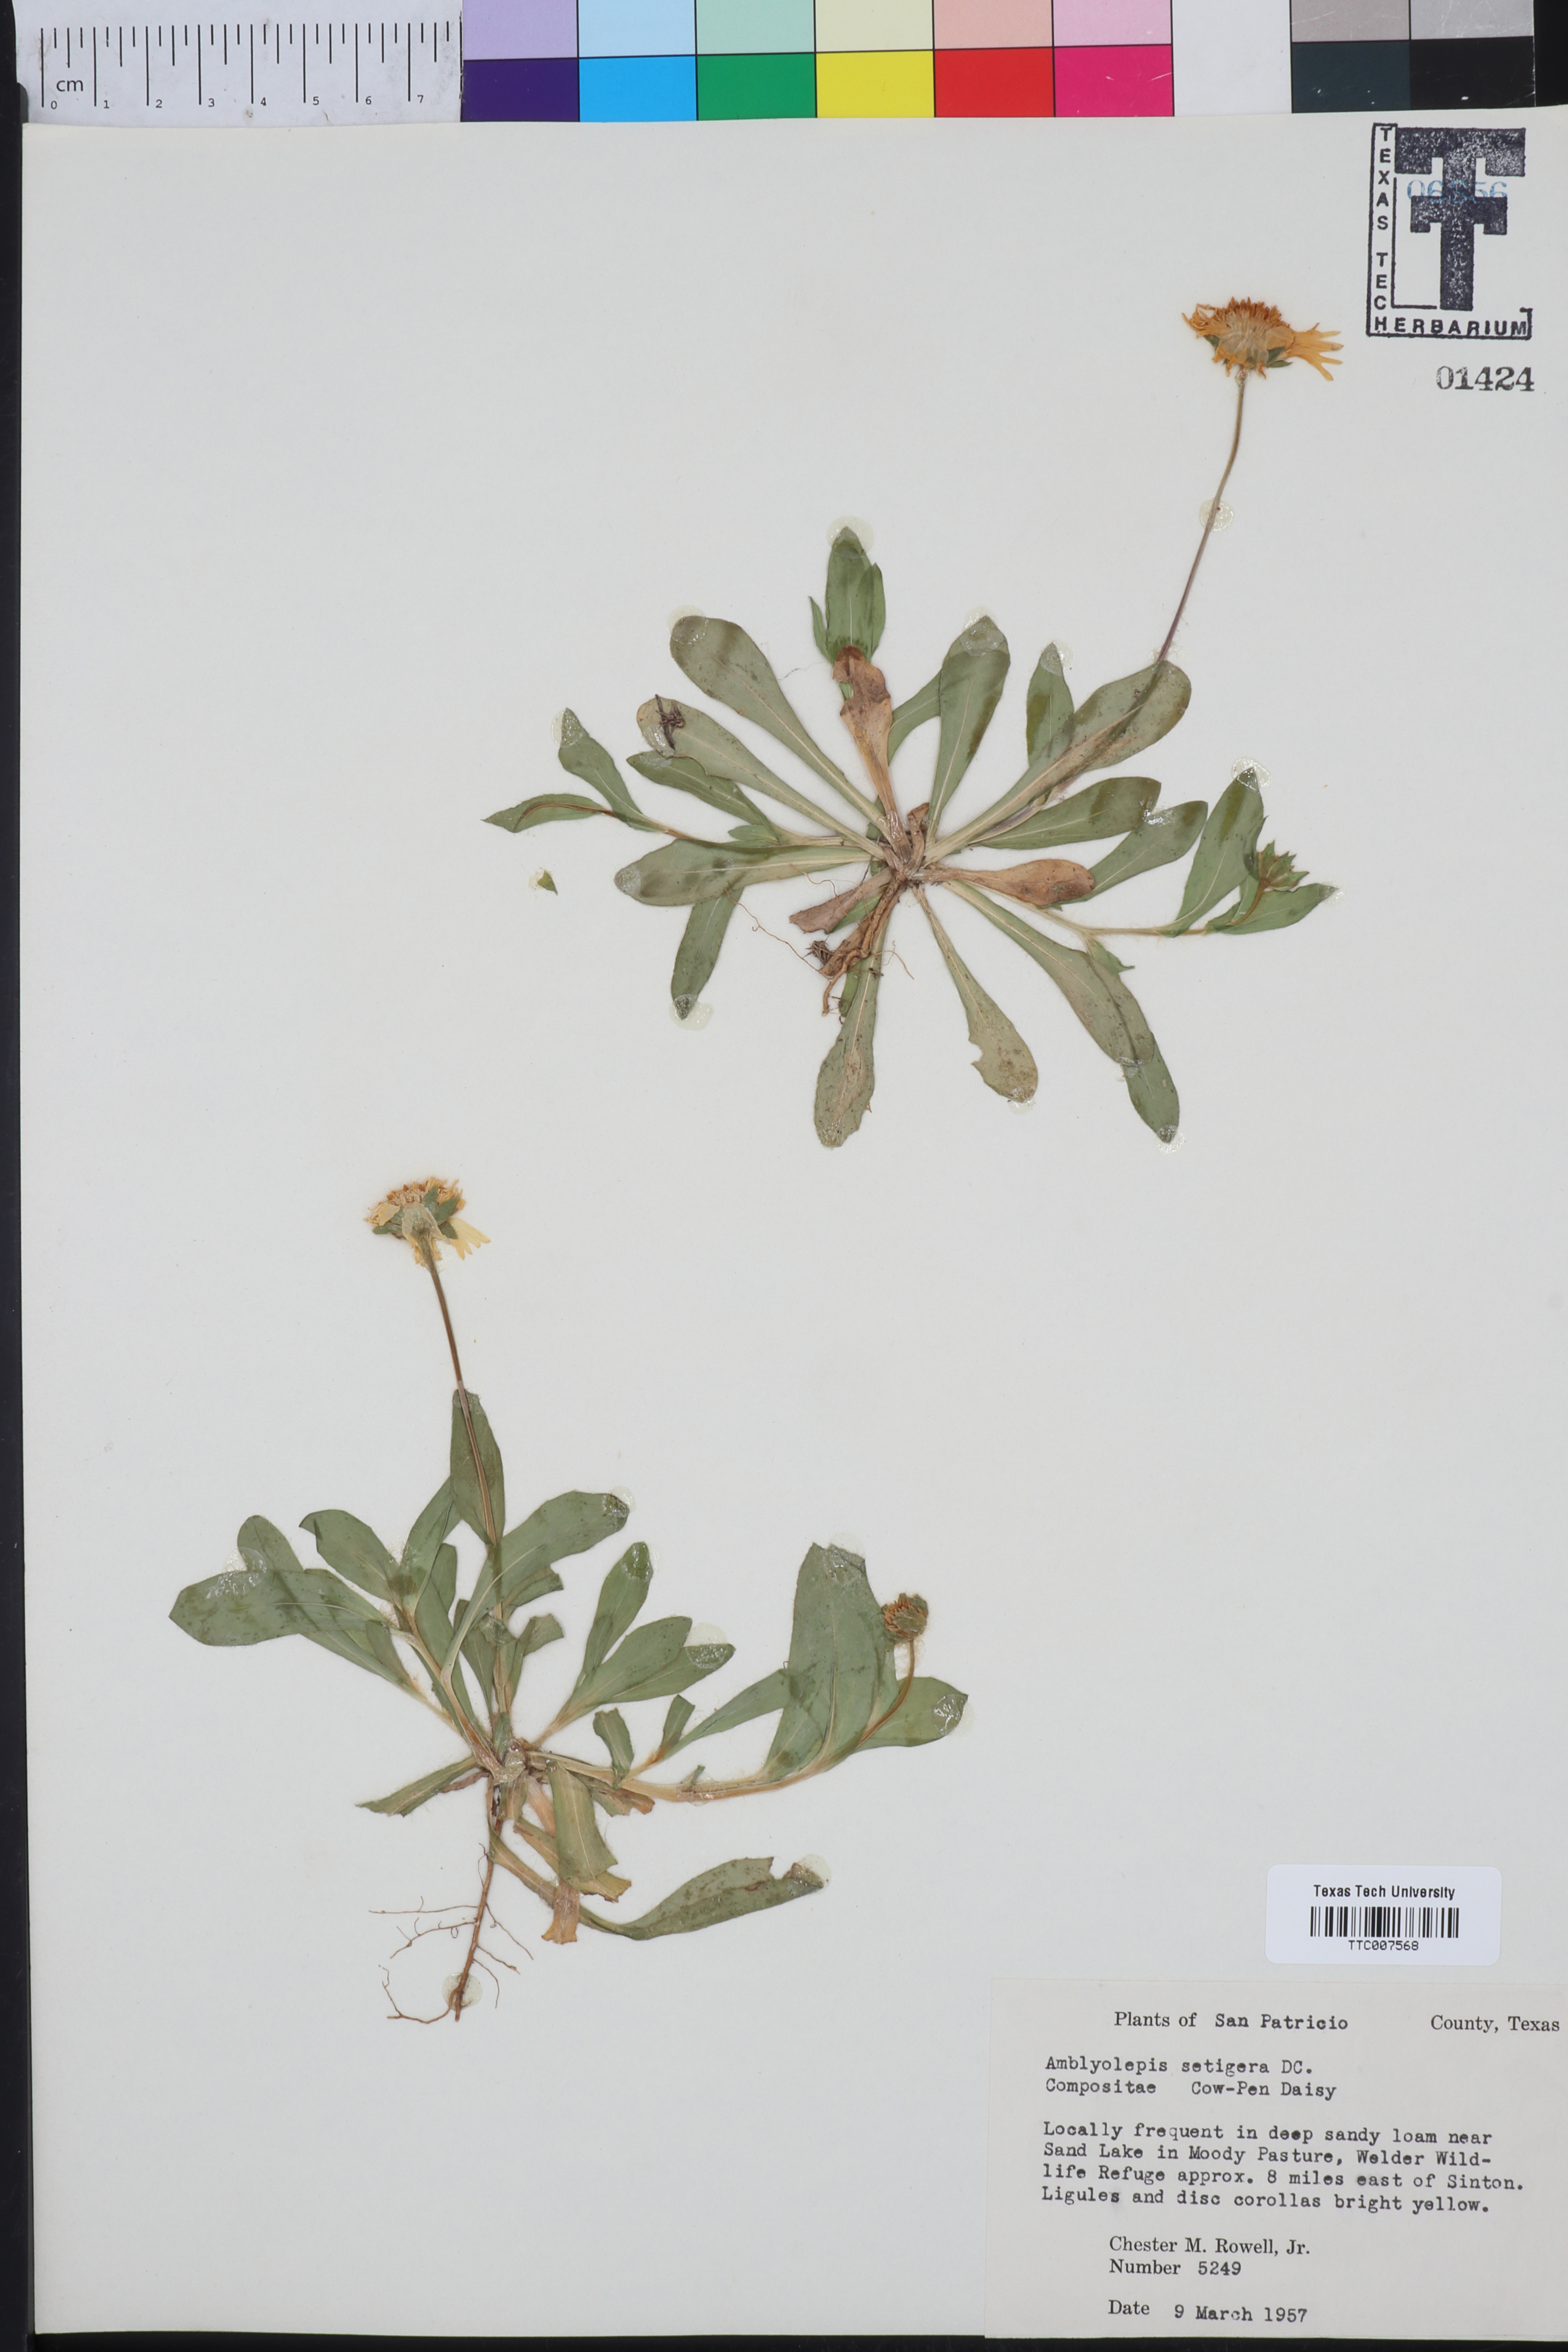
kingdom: Plantae
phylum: Tracheophyta
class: Magnoliopsida
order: Asterales
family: Asteraceae
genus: Amblyolepis
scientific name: Amblyolepis setigera
